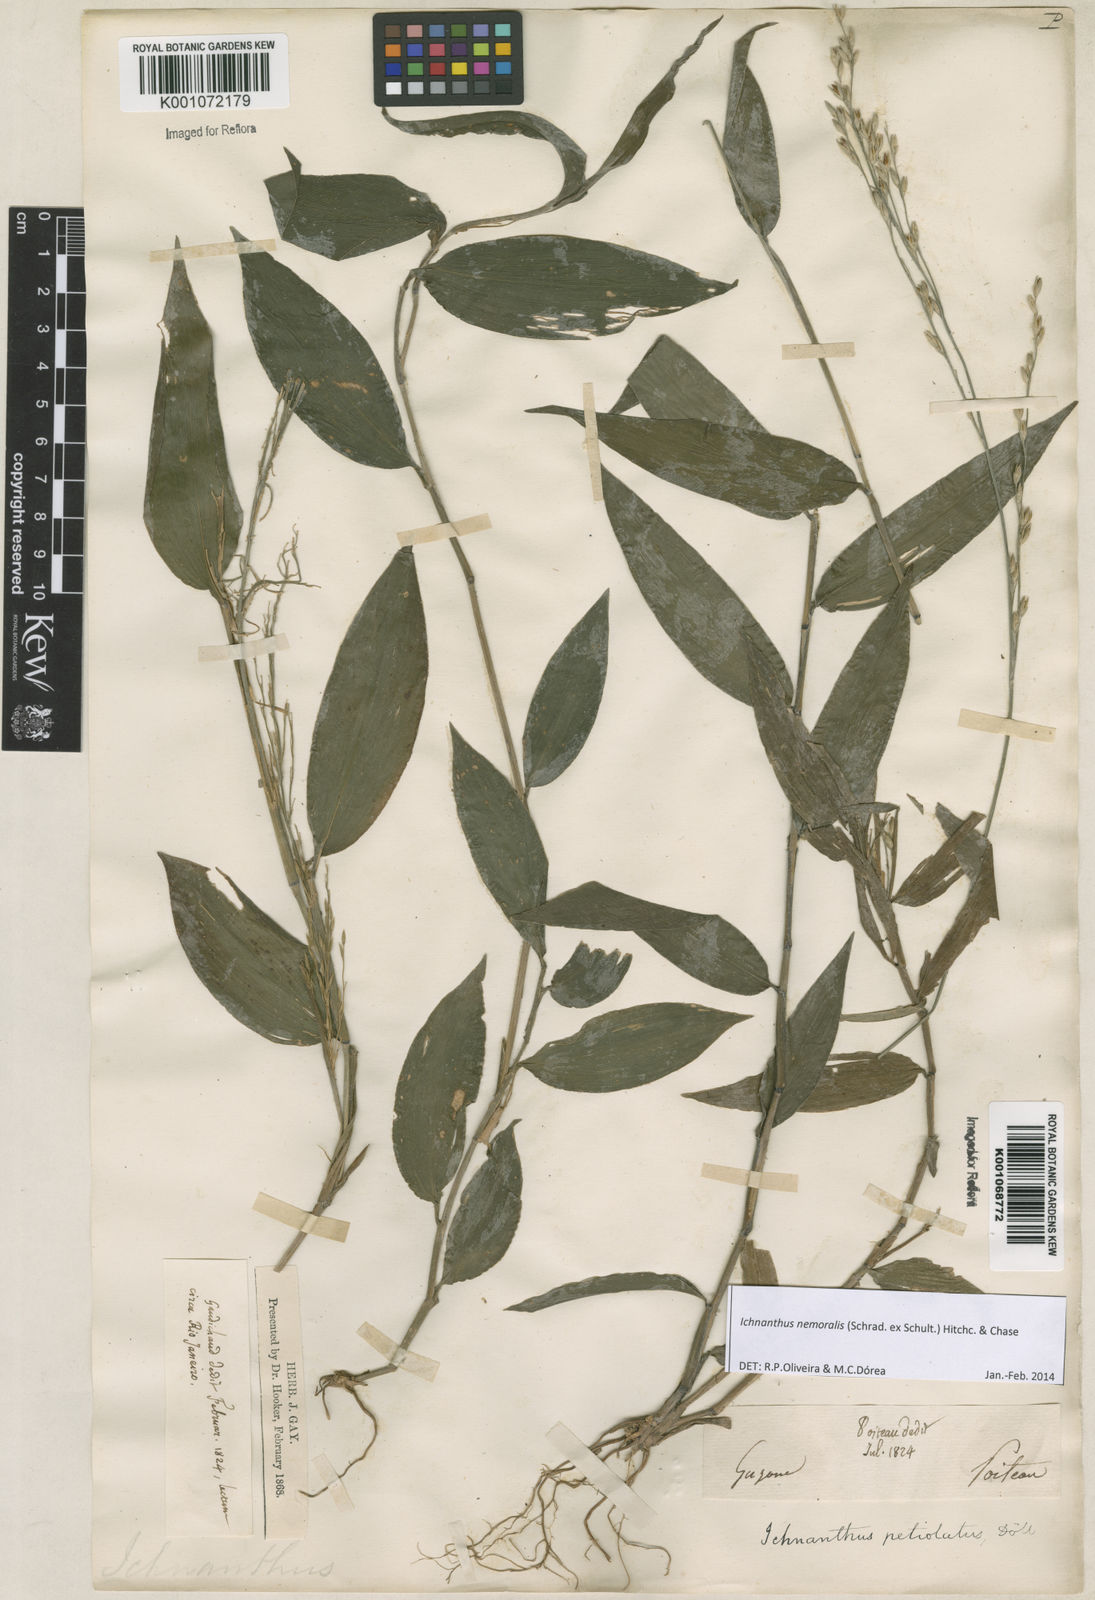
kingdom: Plantae
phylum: Tracheophyta
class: Liliopsida
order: Poales
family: Poaceae
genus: Ichnanthus
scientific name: Ichnanthus nemoralis
